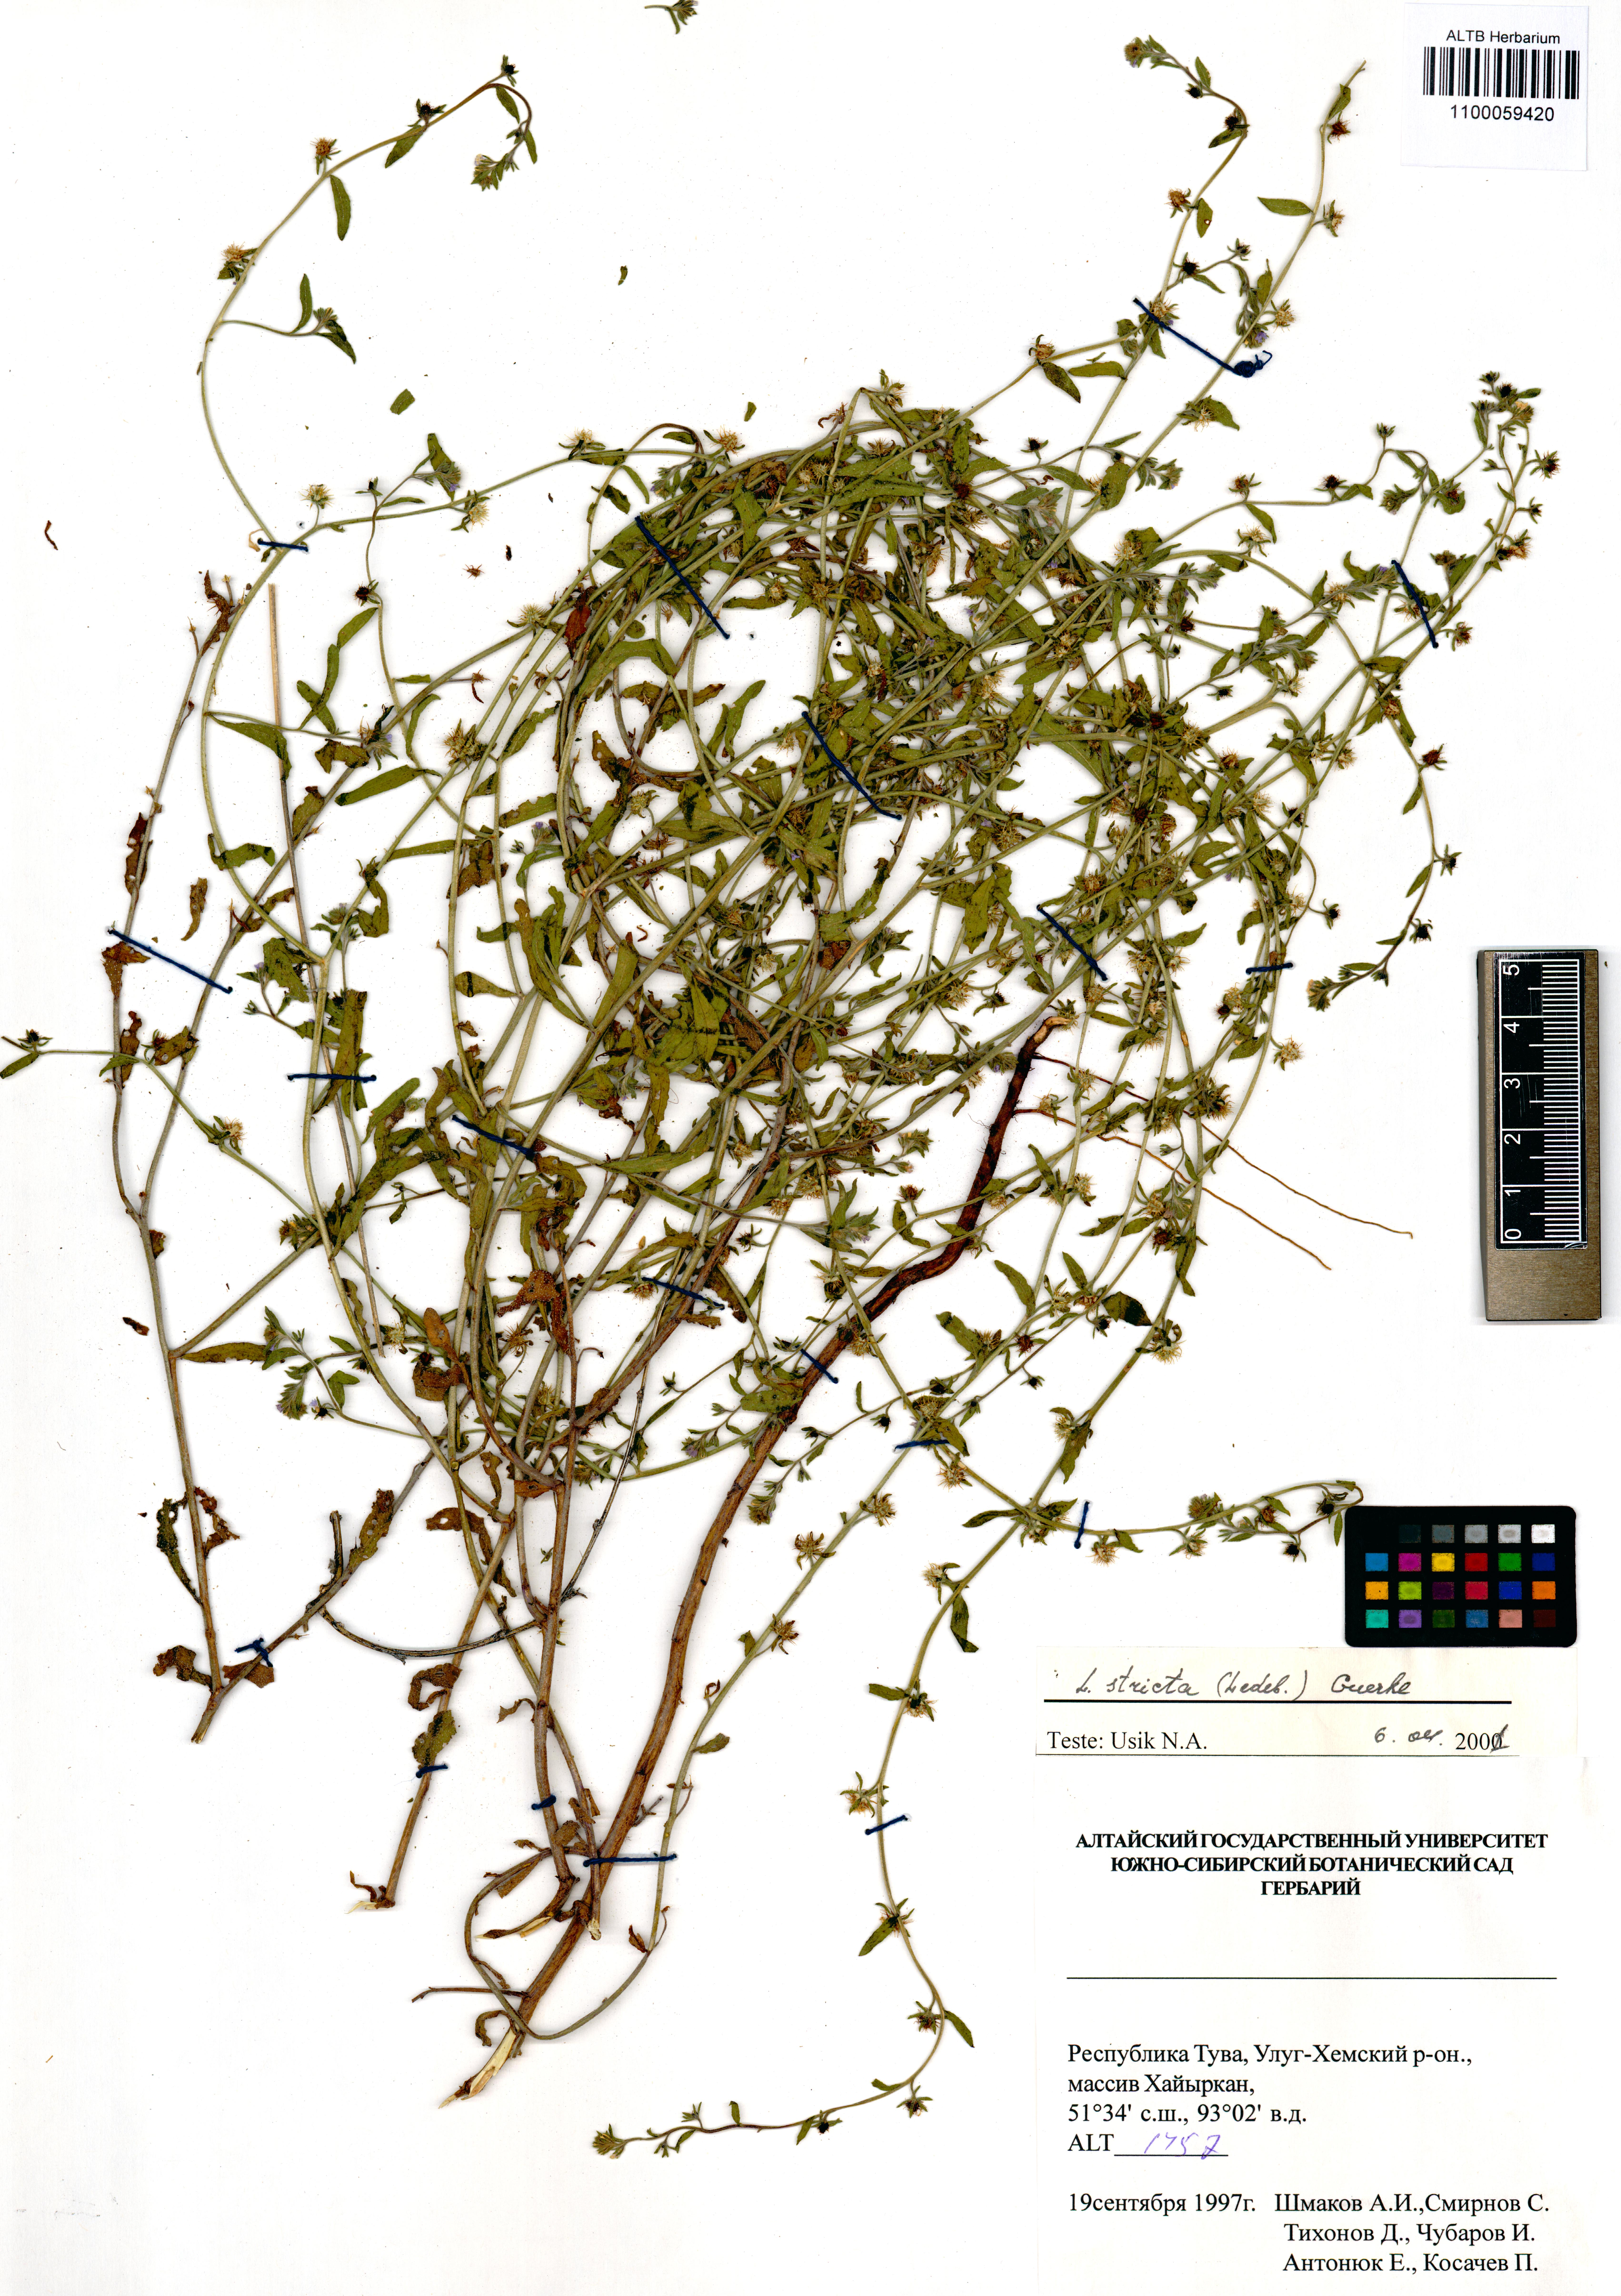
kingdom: Plantae
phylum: Tracheophyta
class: Magnoliopsida
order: Boraginales
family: Boraginaceae
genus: Lappula
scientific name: Lappula stricta
